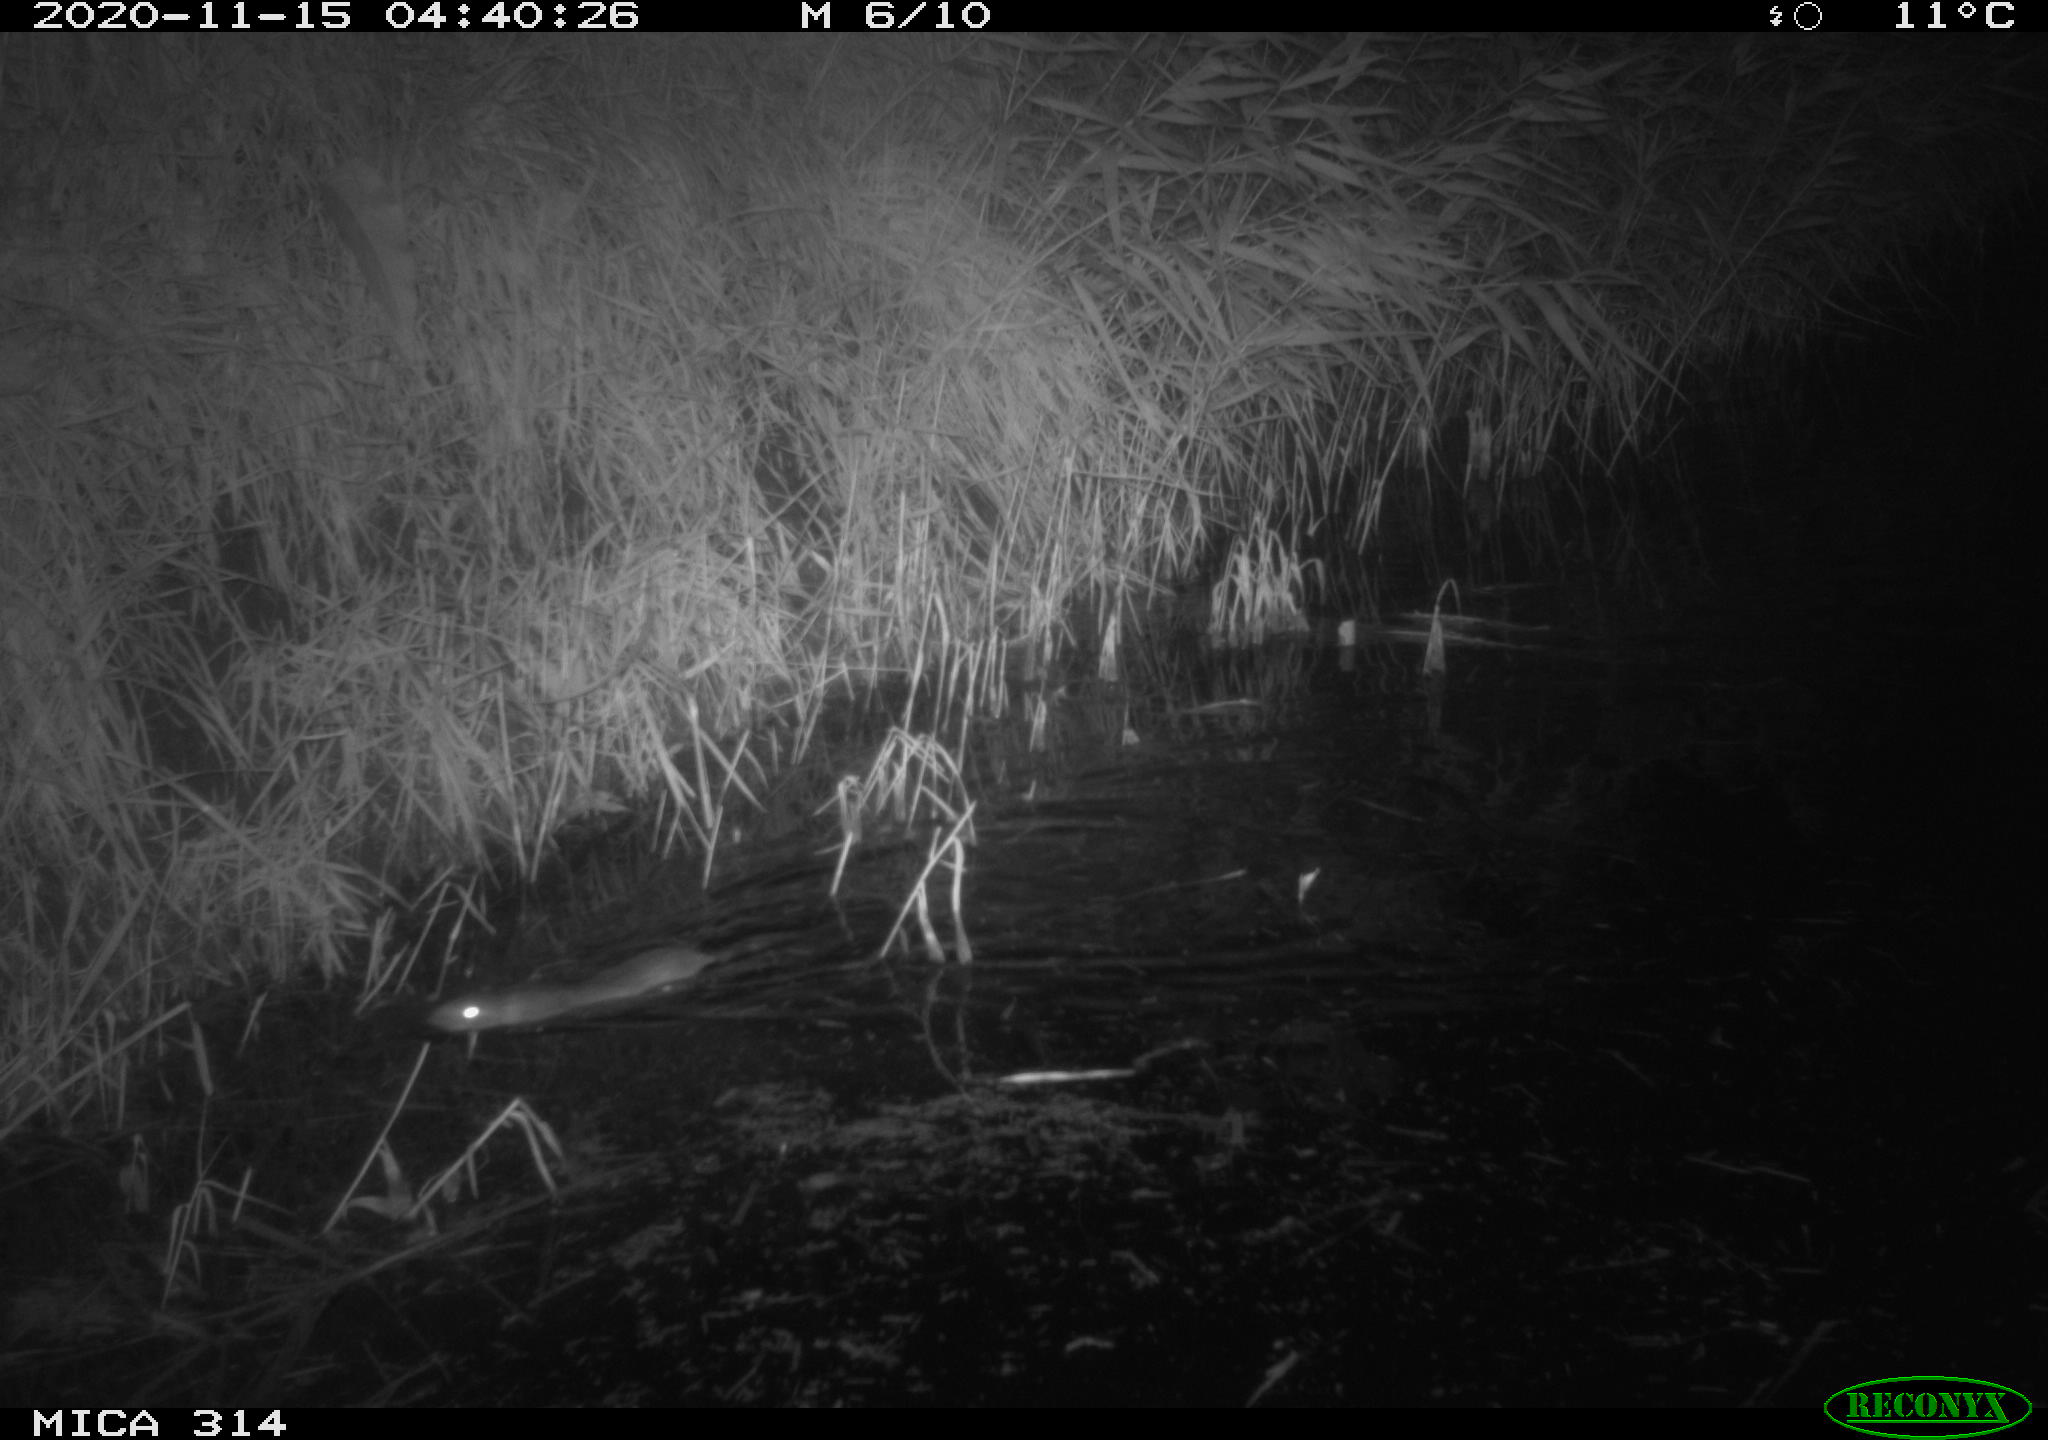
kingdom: Animalia
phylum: Chordata
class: Mammalia
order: Rodentia
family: Muridae
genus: Rattus
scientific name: Rattus norvegicus
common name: Brown rat
